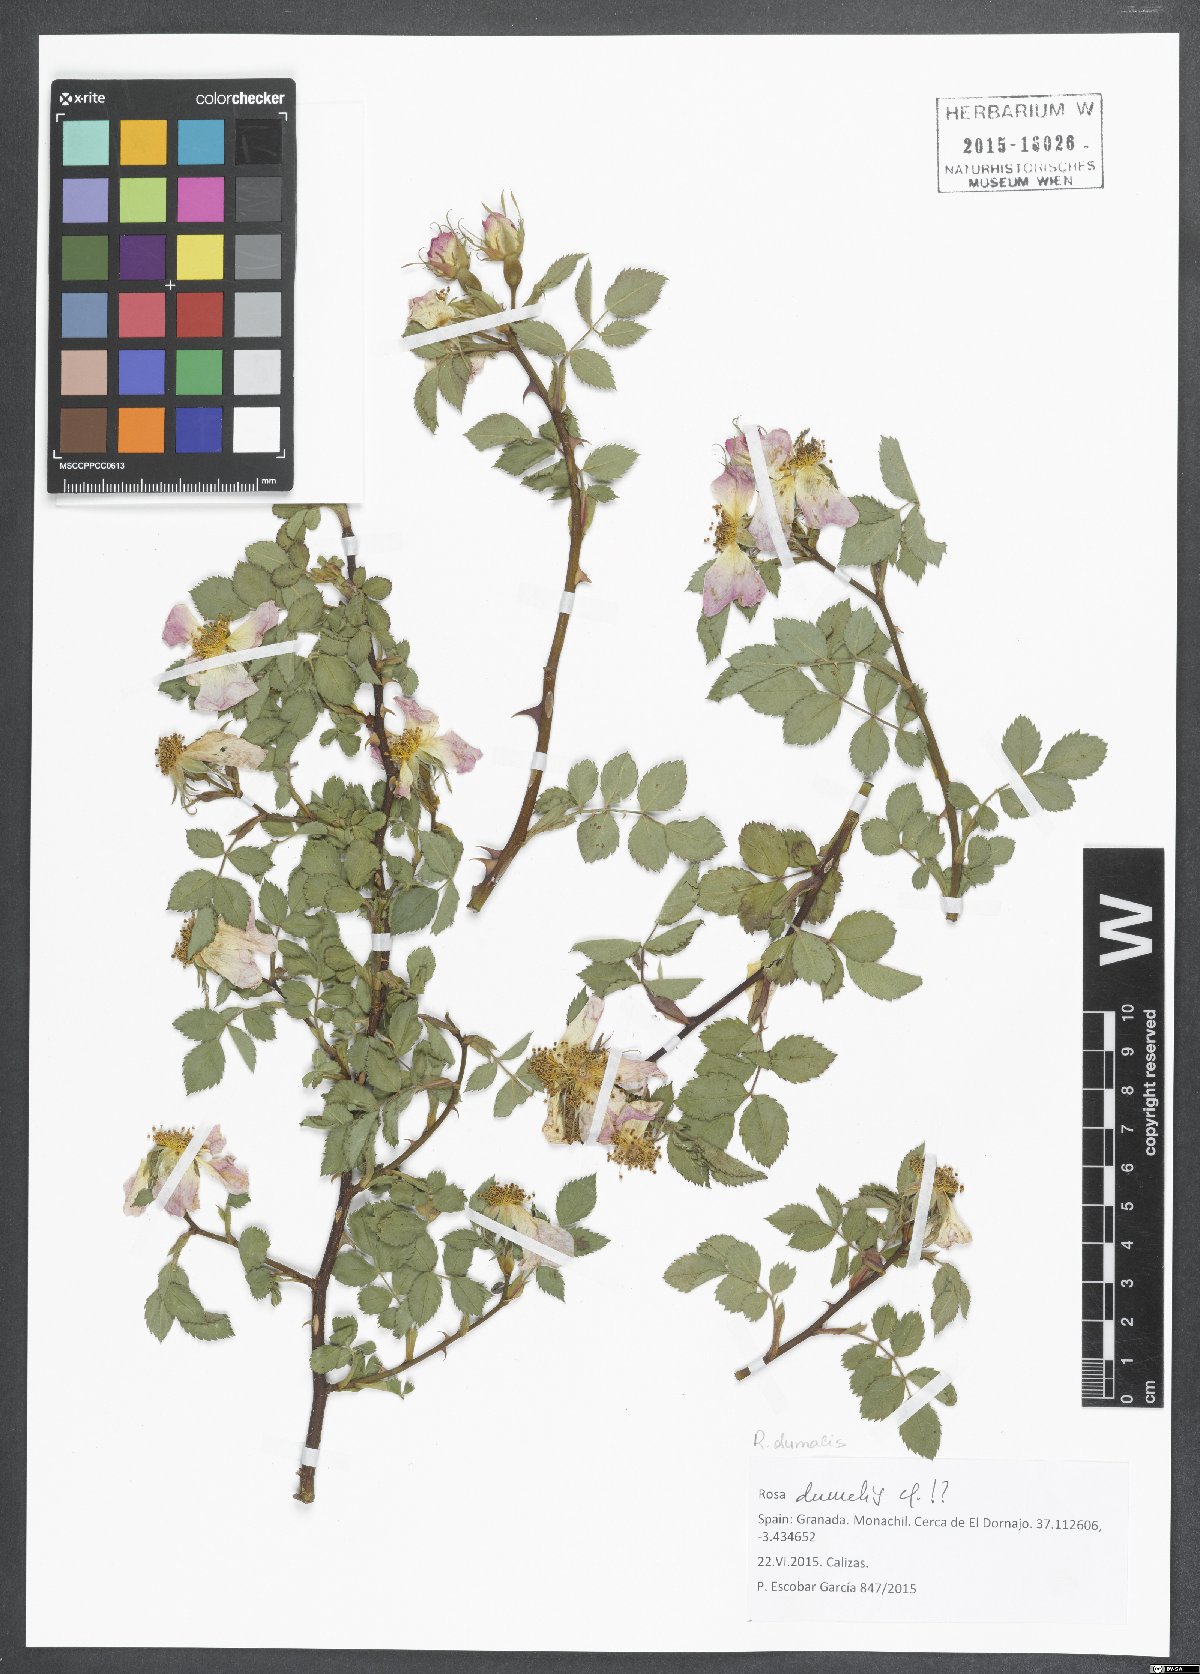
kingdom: Plantae
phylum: Tracheophyta
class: Magnoliopsida
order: Rosales
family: Rosaceae
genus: Rosa
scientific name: Rosa dumalis
